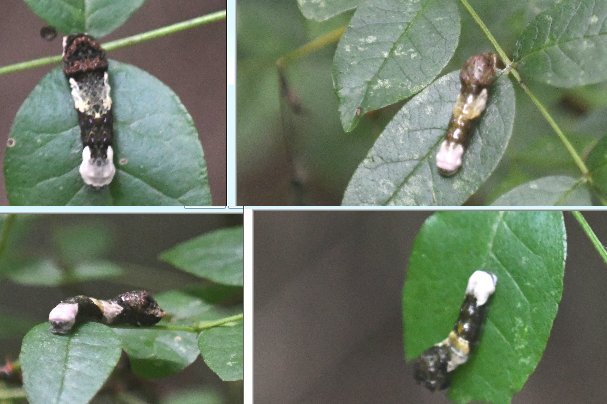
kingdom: Animalia
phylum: Arthropoda
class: Insecta
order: Lepidoptera
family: Papilionidae
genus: Papilio
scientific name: Papilio cresphontes
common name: Eastern Giant Swallowtail
